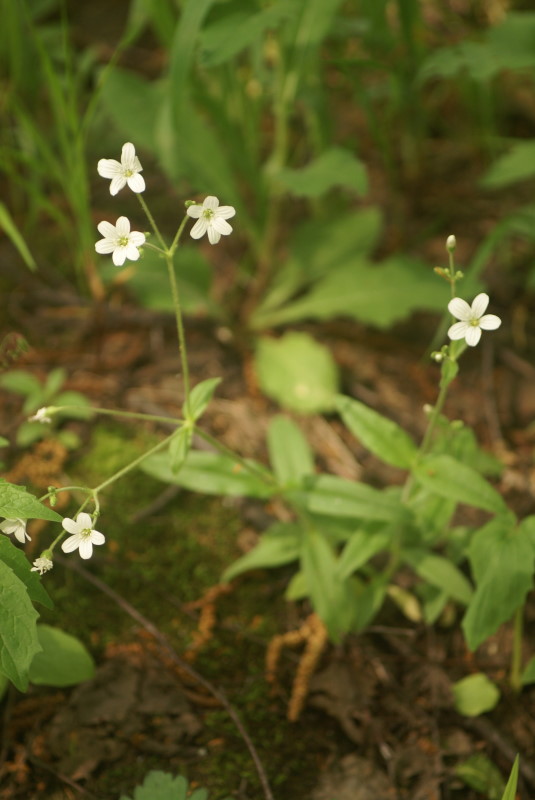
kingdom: Plantae
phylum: Tracheophyta
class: Magnoliopsida
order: Caryophyllales
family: Caryophyllaceae
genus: Cerastium
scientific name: Cerastium pauciflorum
